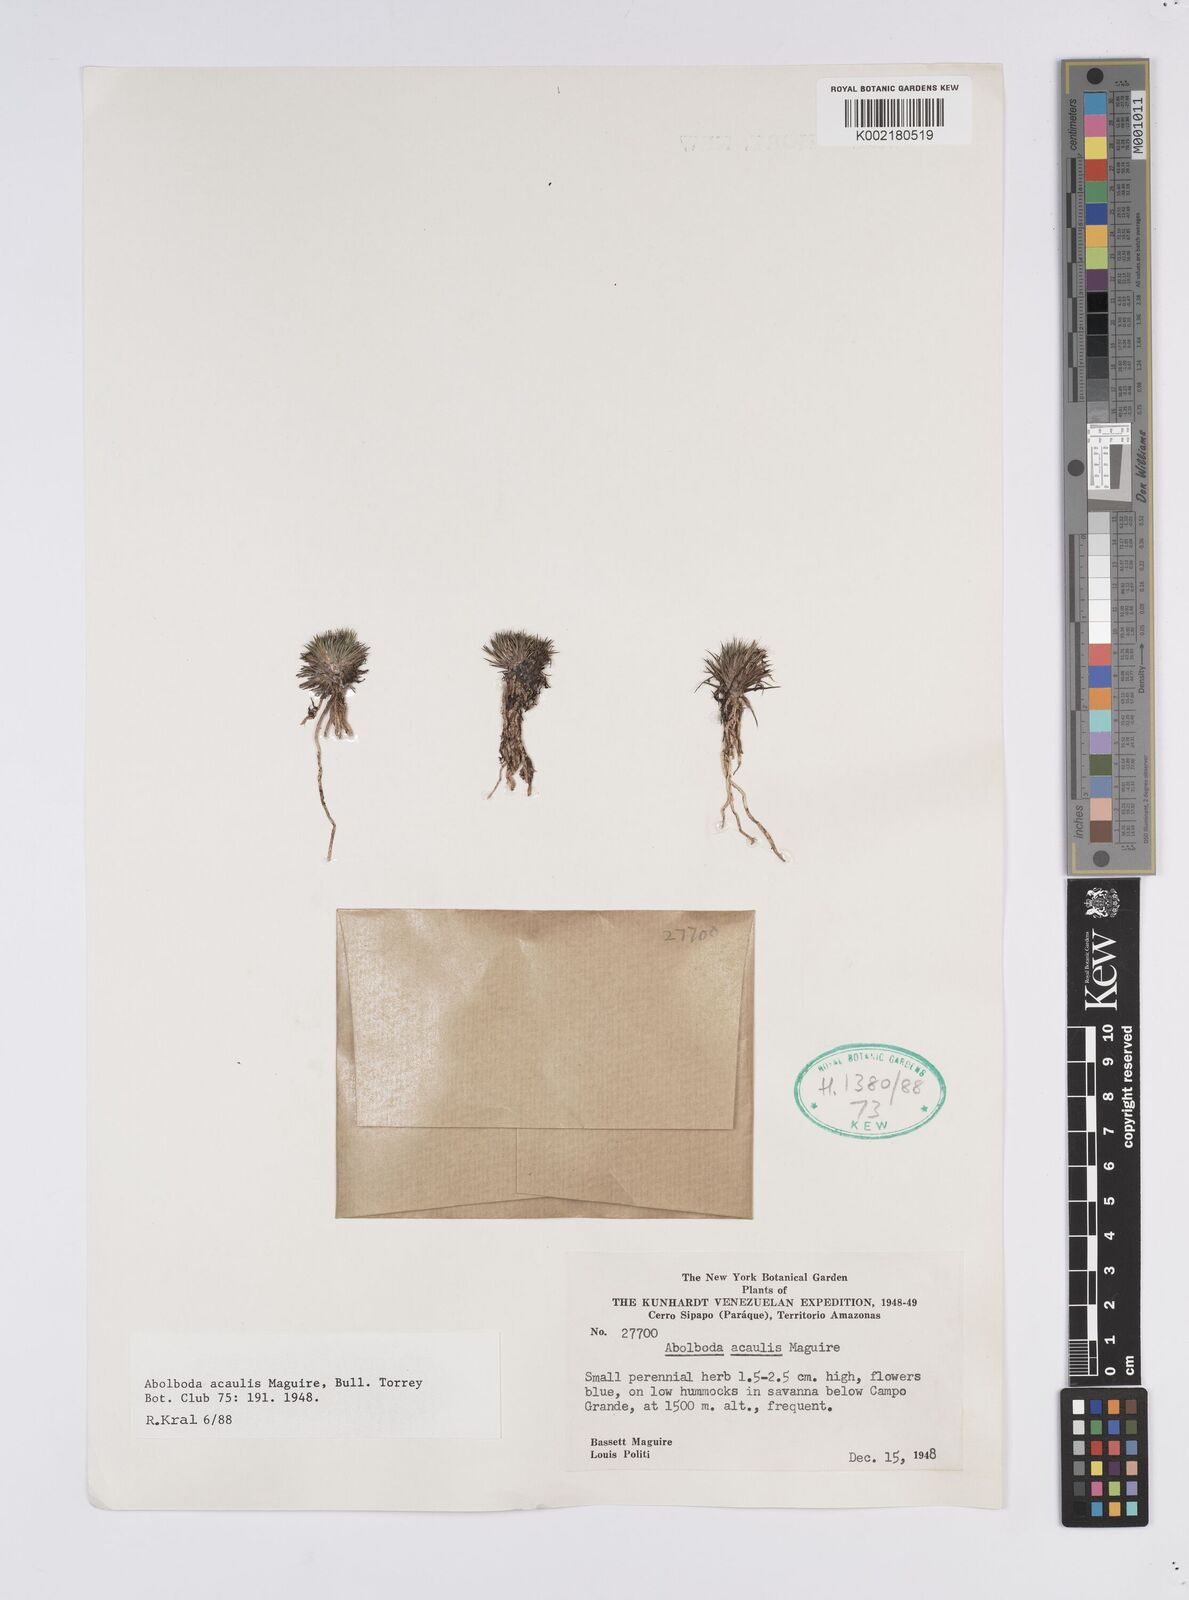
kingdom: Plantae
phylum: Tracheophyta
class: Liliopsida
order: Poales
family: Xyridaceae
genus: Abolboda
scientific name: Abolboda acaulis
